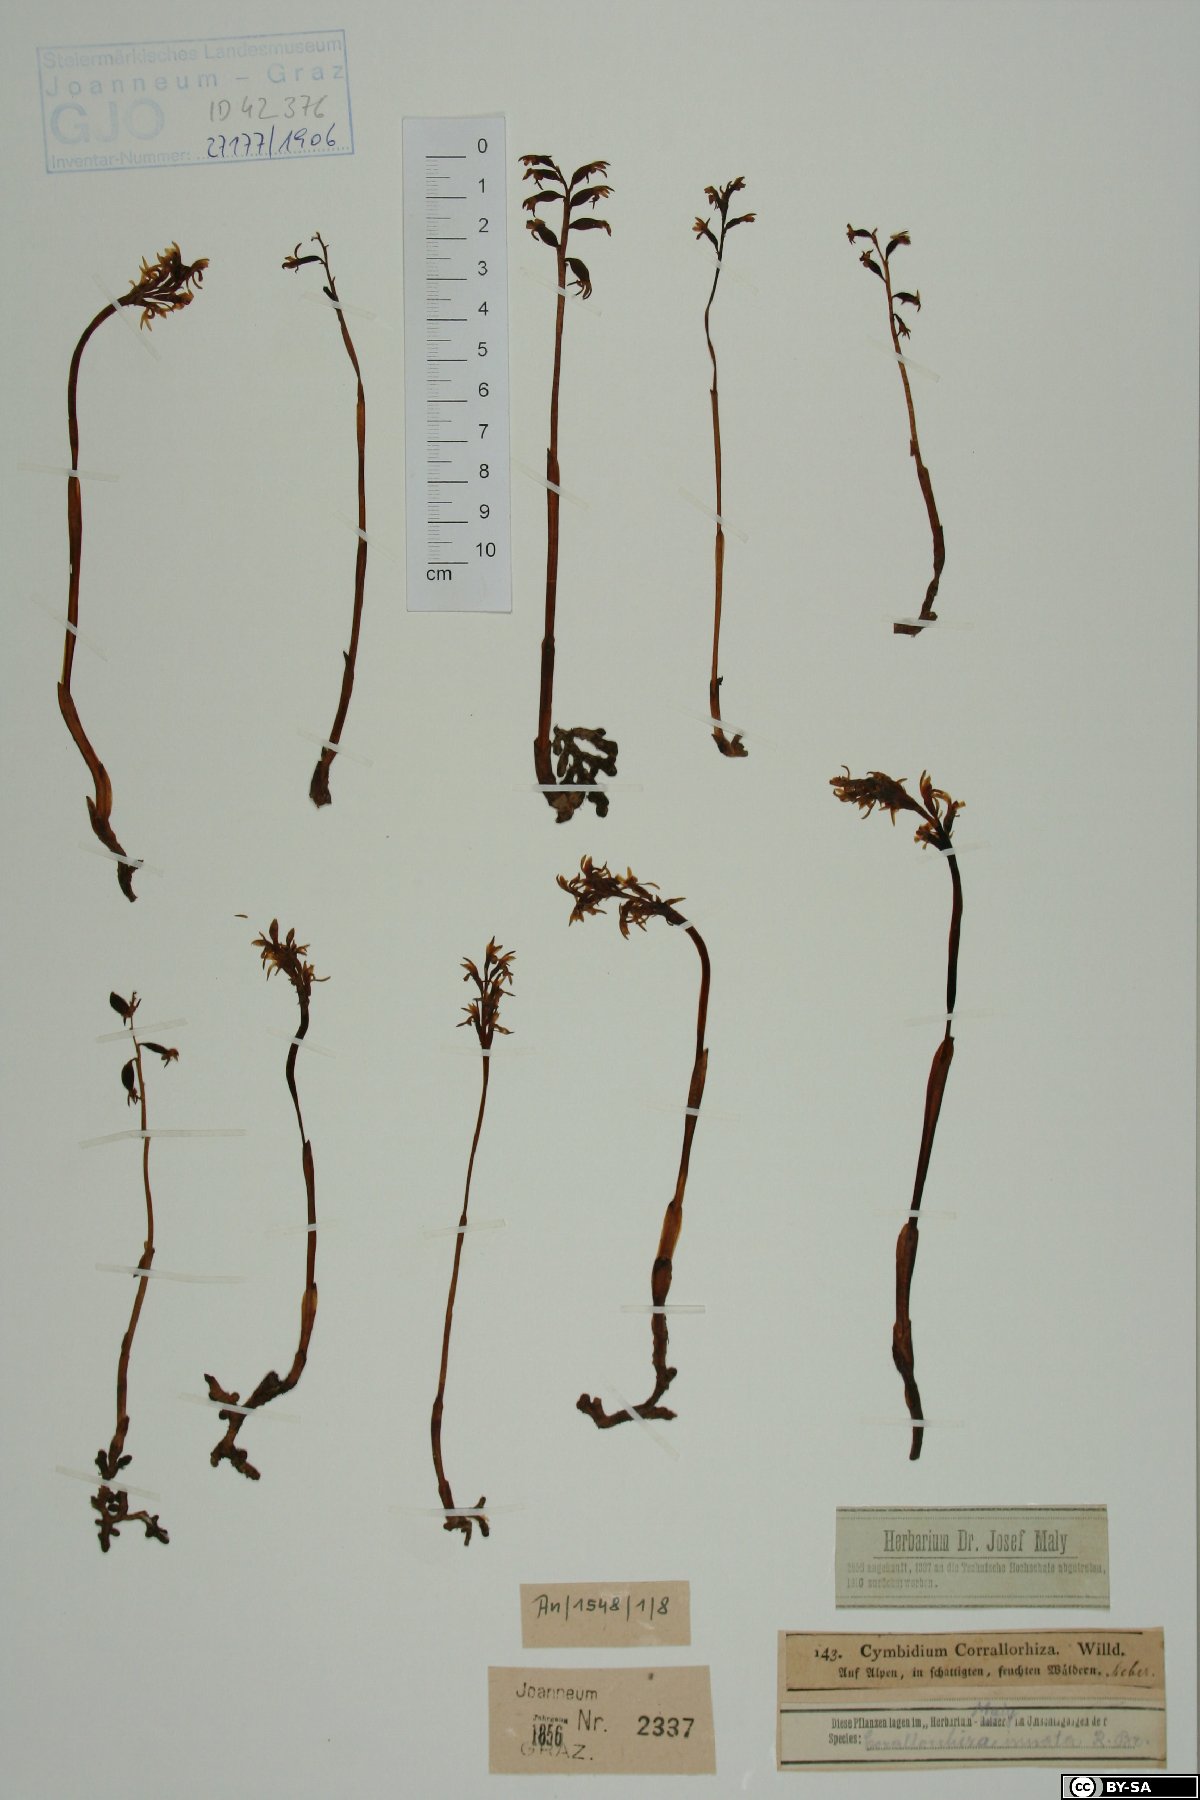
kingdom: Plantae
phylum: Tracheophyta
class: Liliopsida
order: Asparagales
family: Orchidaceae
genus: Corallorhiza
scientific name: Corallorhiza trifida
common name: Yellow coralroot
